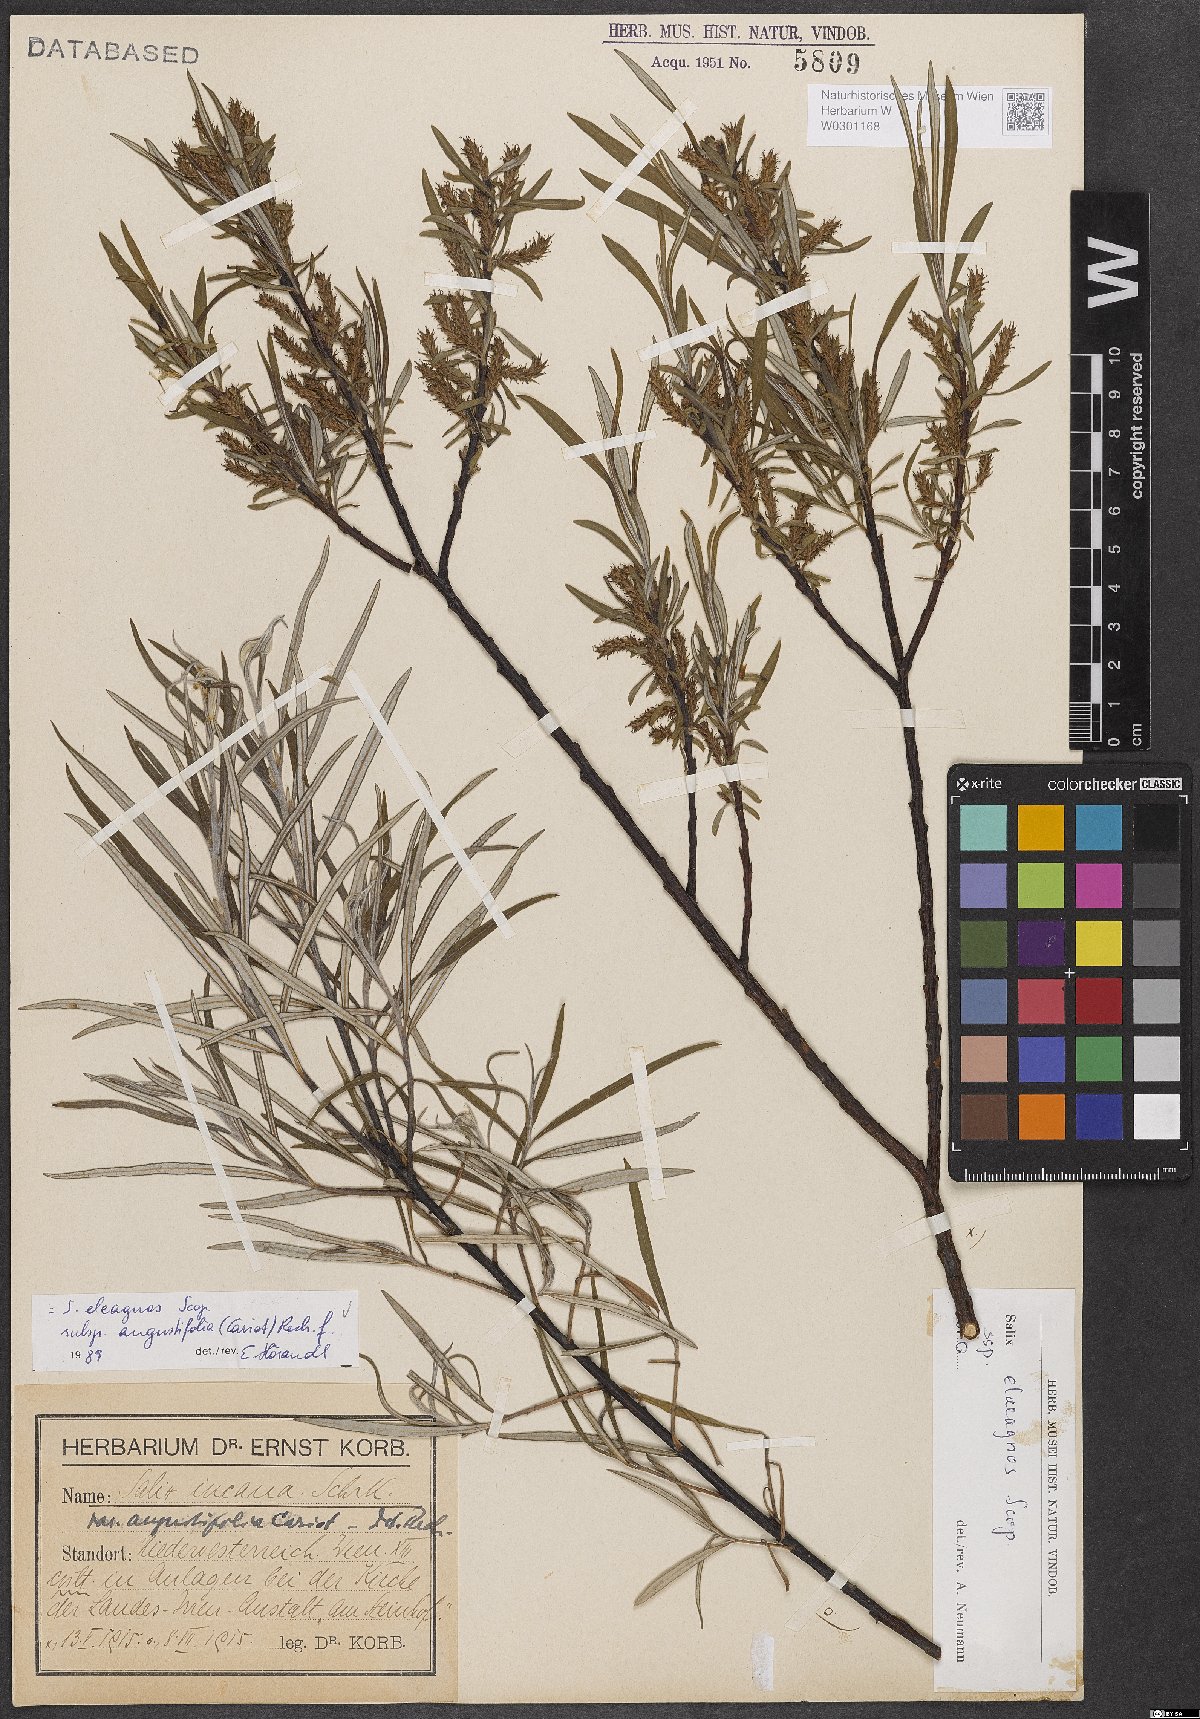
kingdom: Plantae
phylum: Tracheophyta
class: Magnoliopsida
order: Malpighiales
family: Salicaceae
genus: Salix
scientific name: Salix eleagnos
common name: Elaeagnus willow
